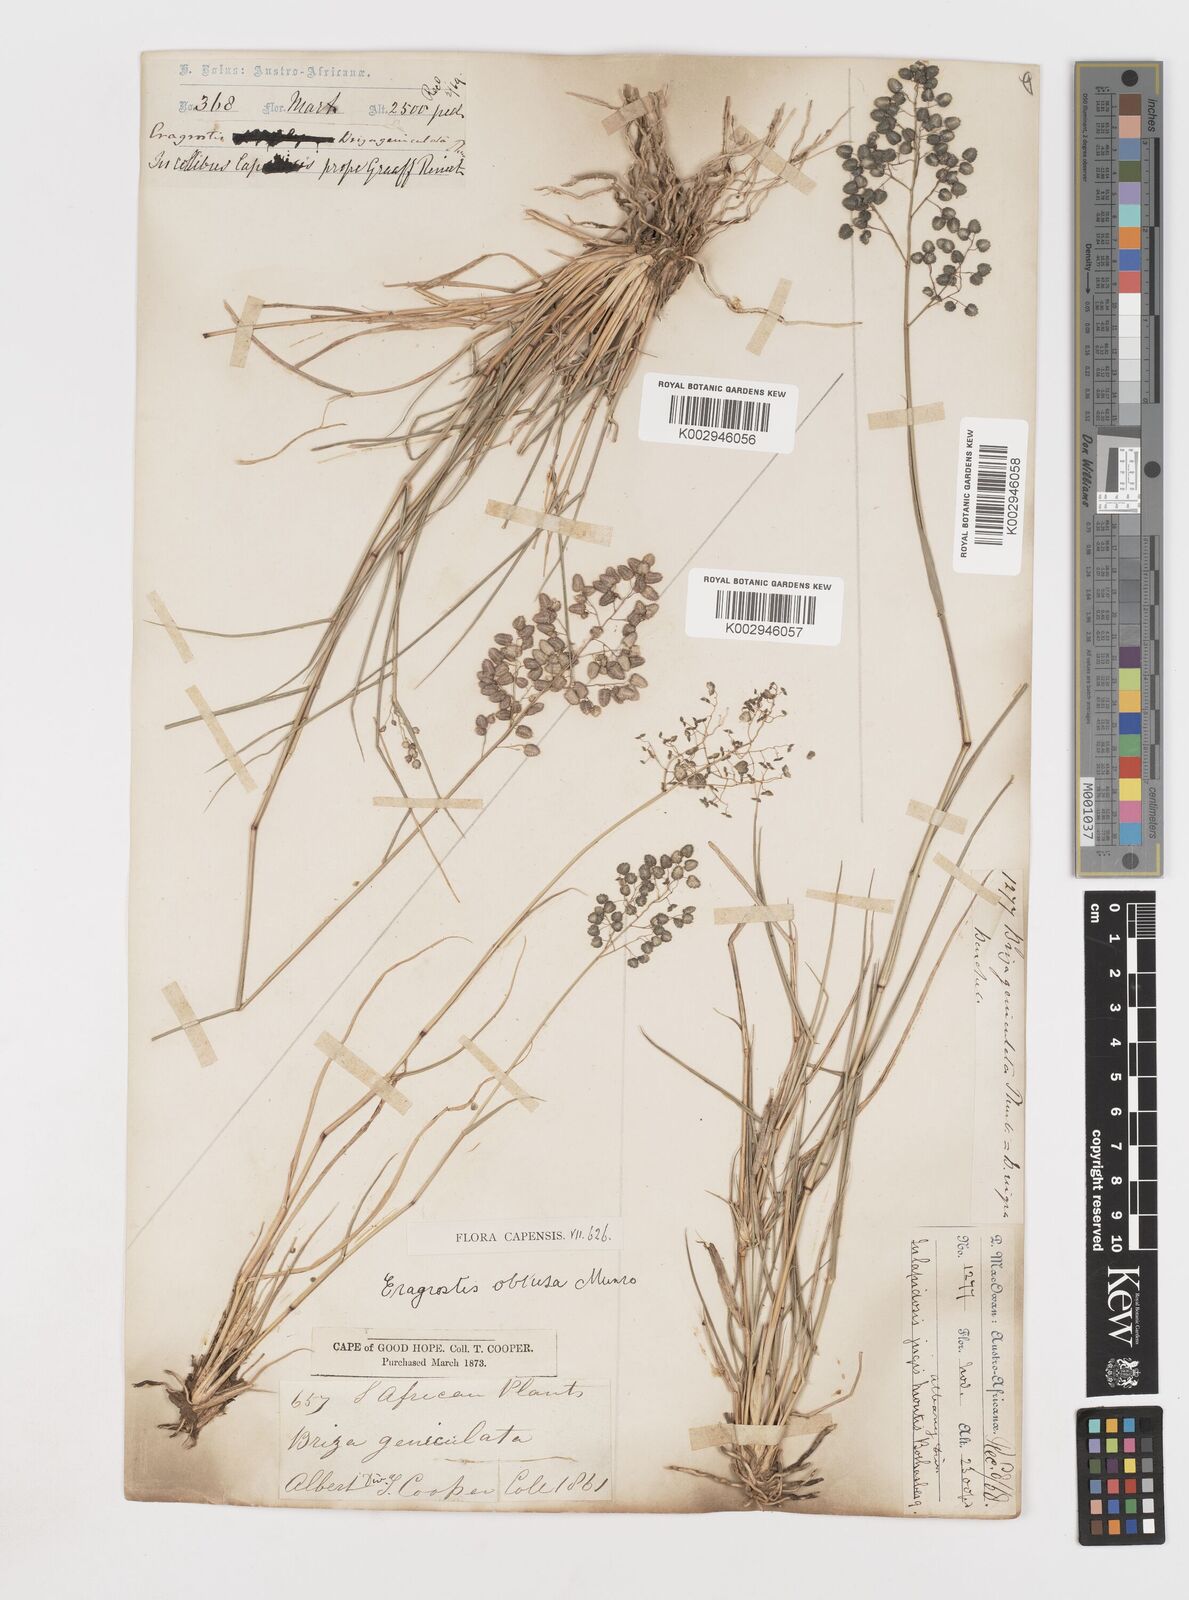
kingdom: Plantae
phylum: Tracheophyta
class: Liliopsida
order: Poales
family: Poaceae
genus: Eragrostis
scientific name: Eragrostis obtusa
